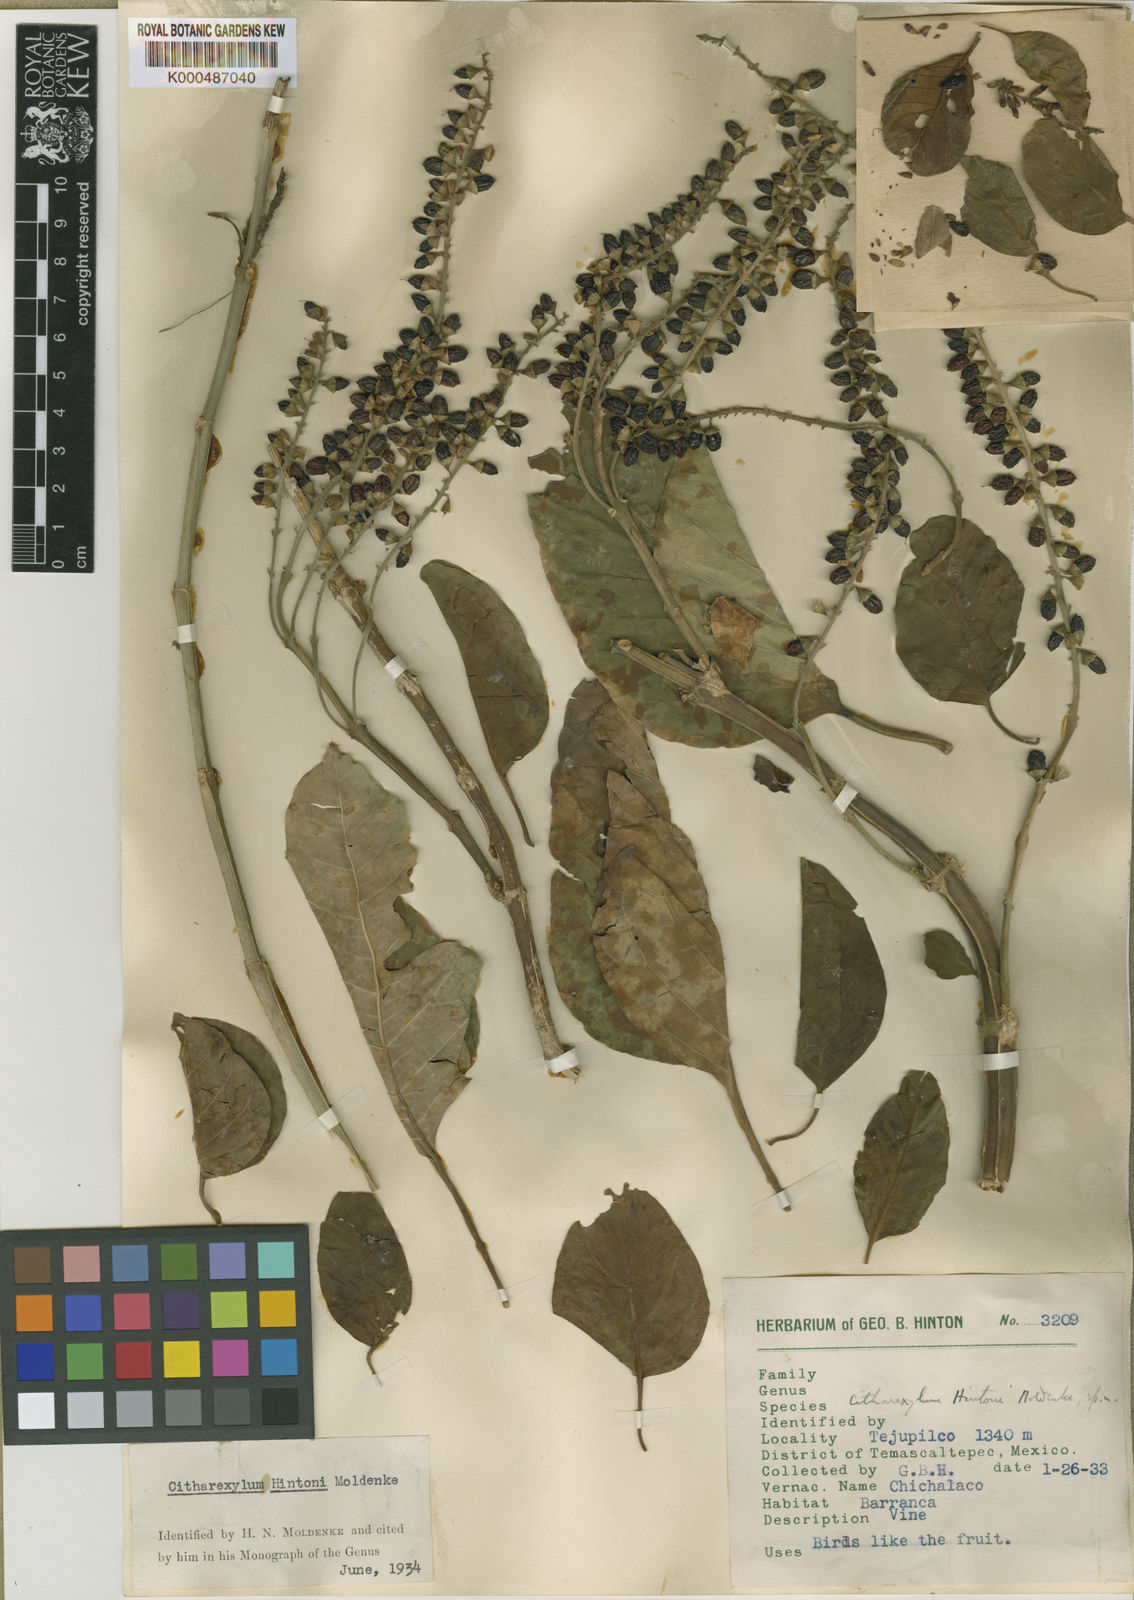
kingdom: Plantae
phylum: Tracheophyta
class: Magnoliopsida
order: Lamiales
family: Verbenaceae
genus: Citharexylum
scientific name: Citharexylum hintonii
